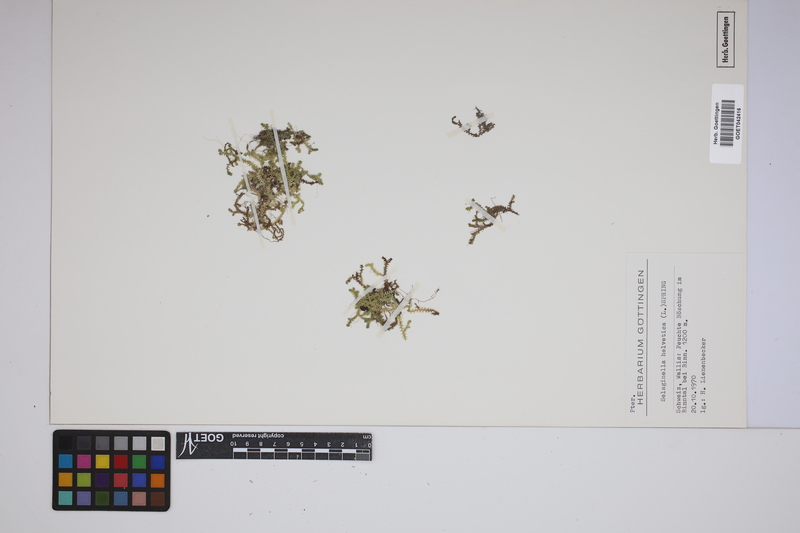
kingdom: Plantae
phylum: Tracheophyta
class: Lycopodiopsida
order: Selaginellales
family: Selaginellaceae
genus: Selaginella
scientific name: Selaginella helvetica
